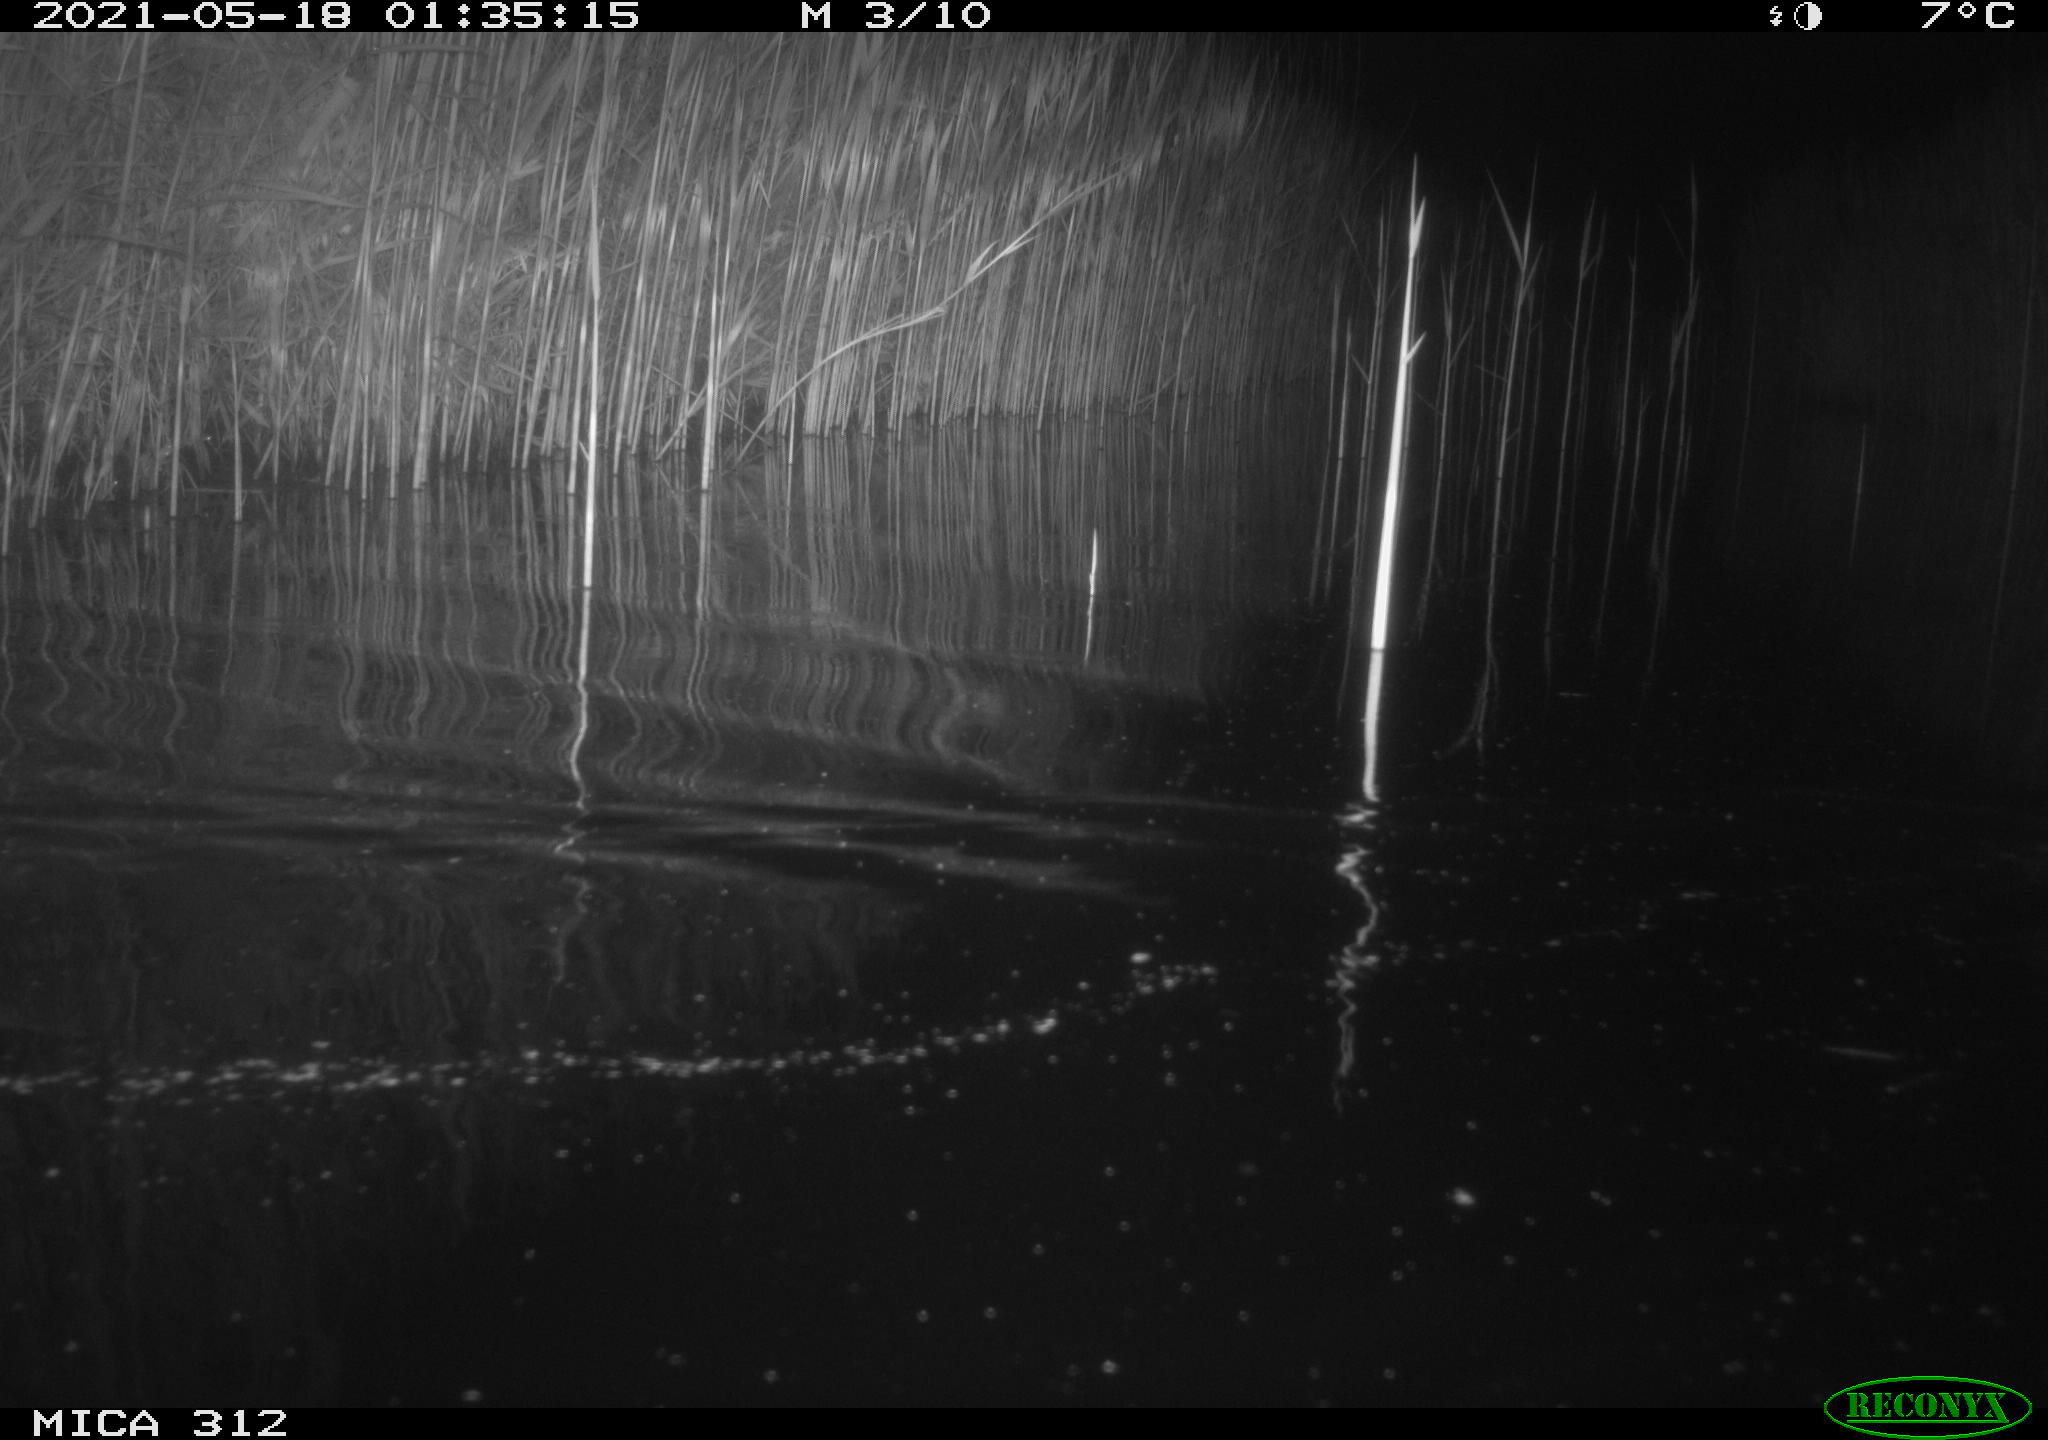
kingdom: Animalia
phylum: Chordata
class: Mammalia
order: Rodentia
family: Muridae
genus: Rattus
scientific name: Rattus norvegicus
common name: Brown rat
